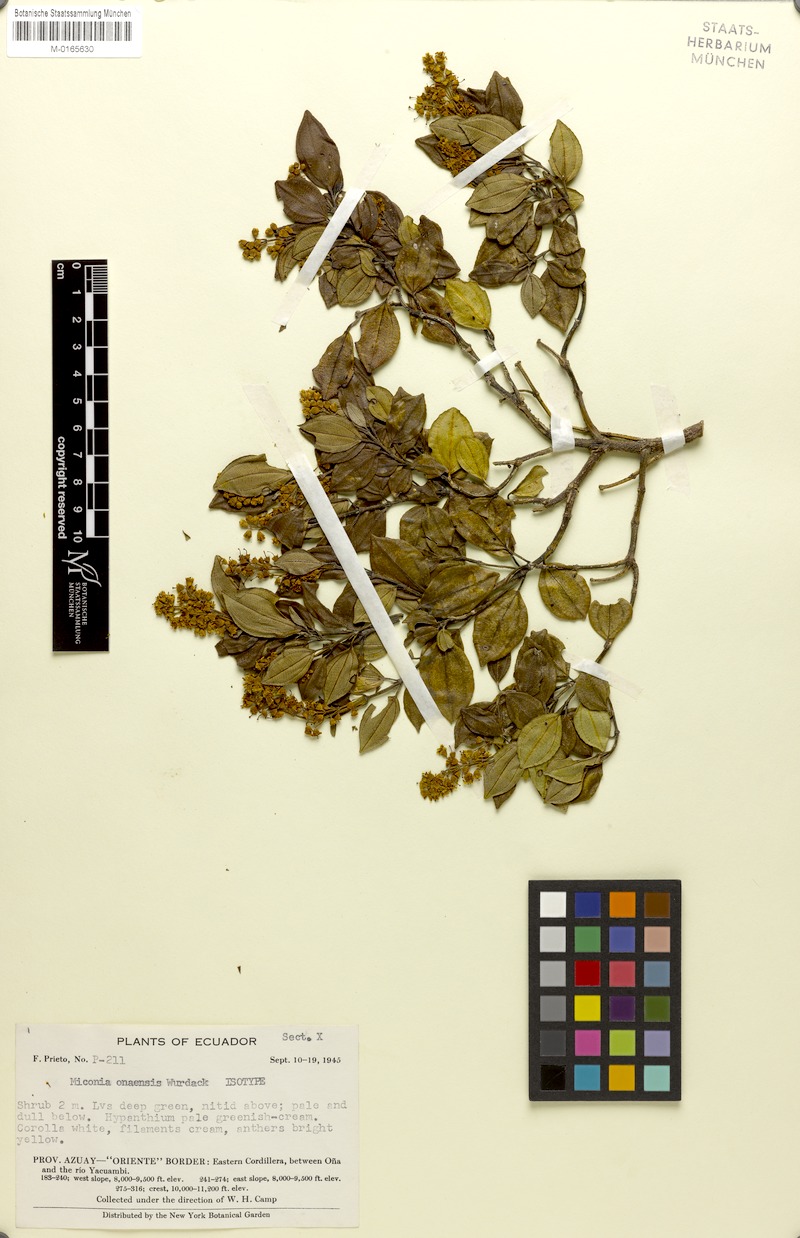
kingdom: Plantae
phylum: Tracheophyta
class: Magnoliopsida
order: Myrtales
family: Melastomataceae
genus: Miconia
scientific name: Miconia onaensis
